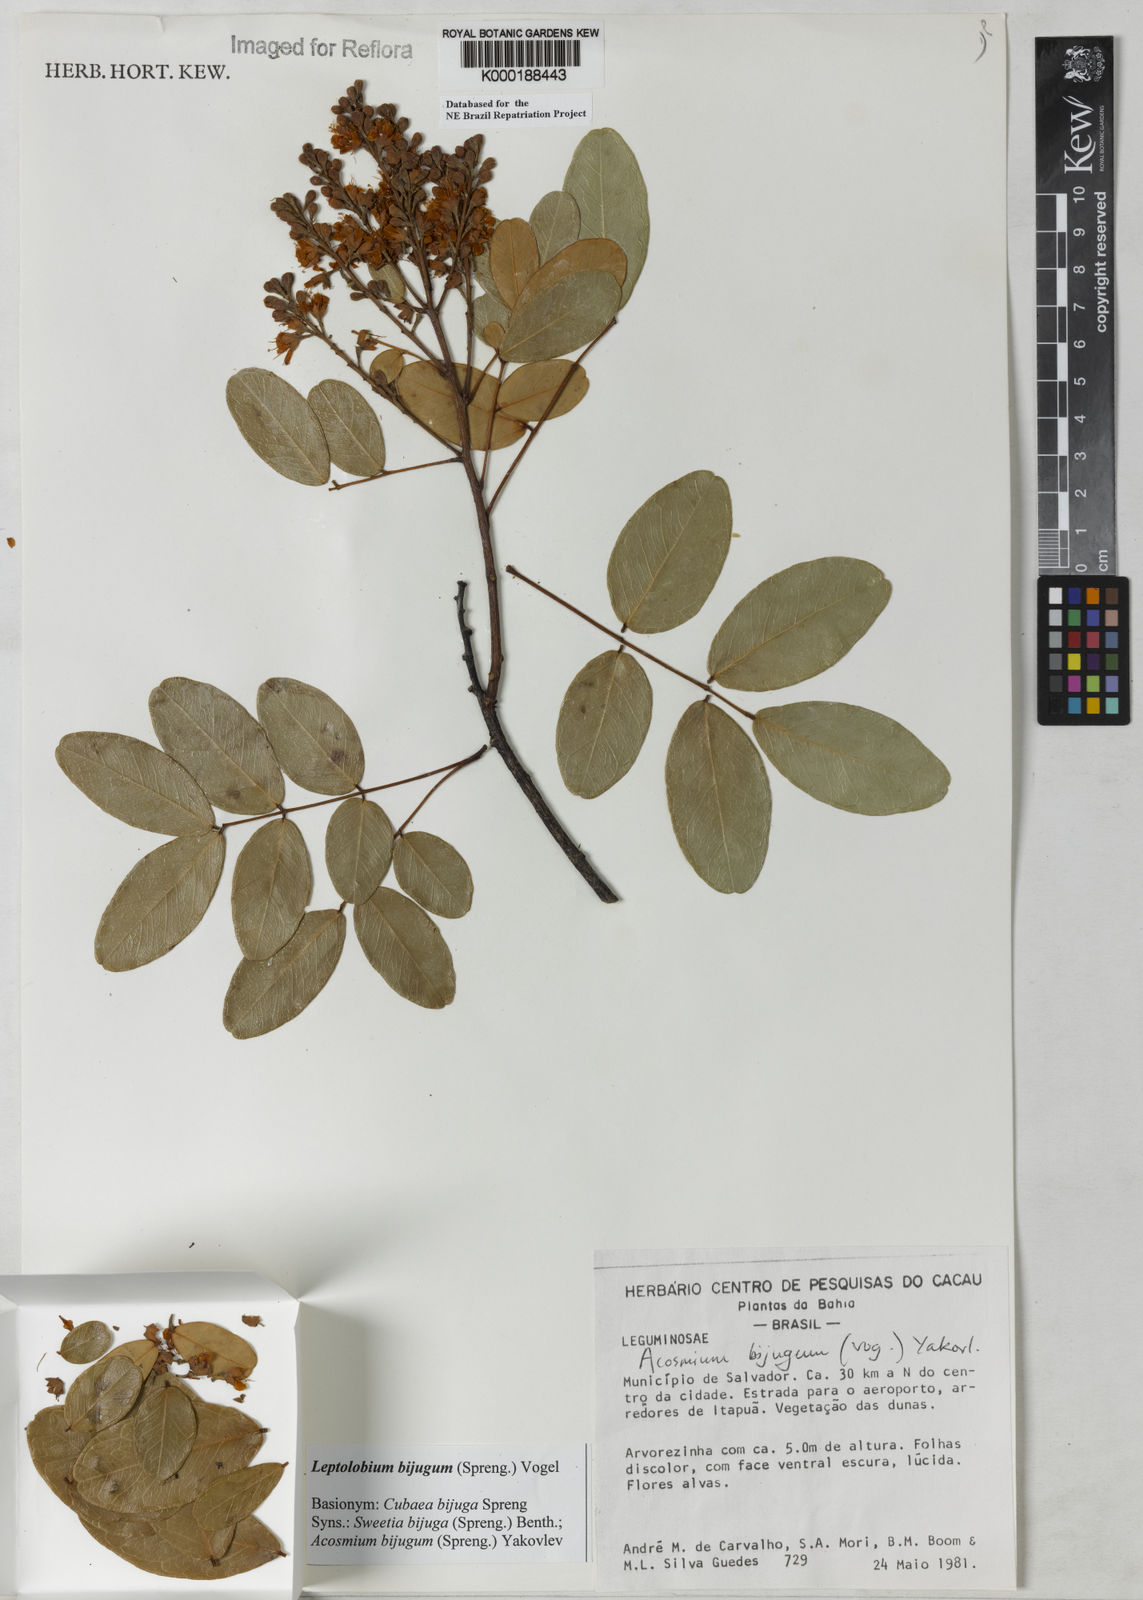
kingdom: Plantae
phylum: Tracheophyta
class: Magnoliopsida
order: Fabales
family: Fabaceae
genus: Leptolobium
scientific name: Leptolobium bijugum
